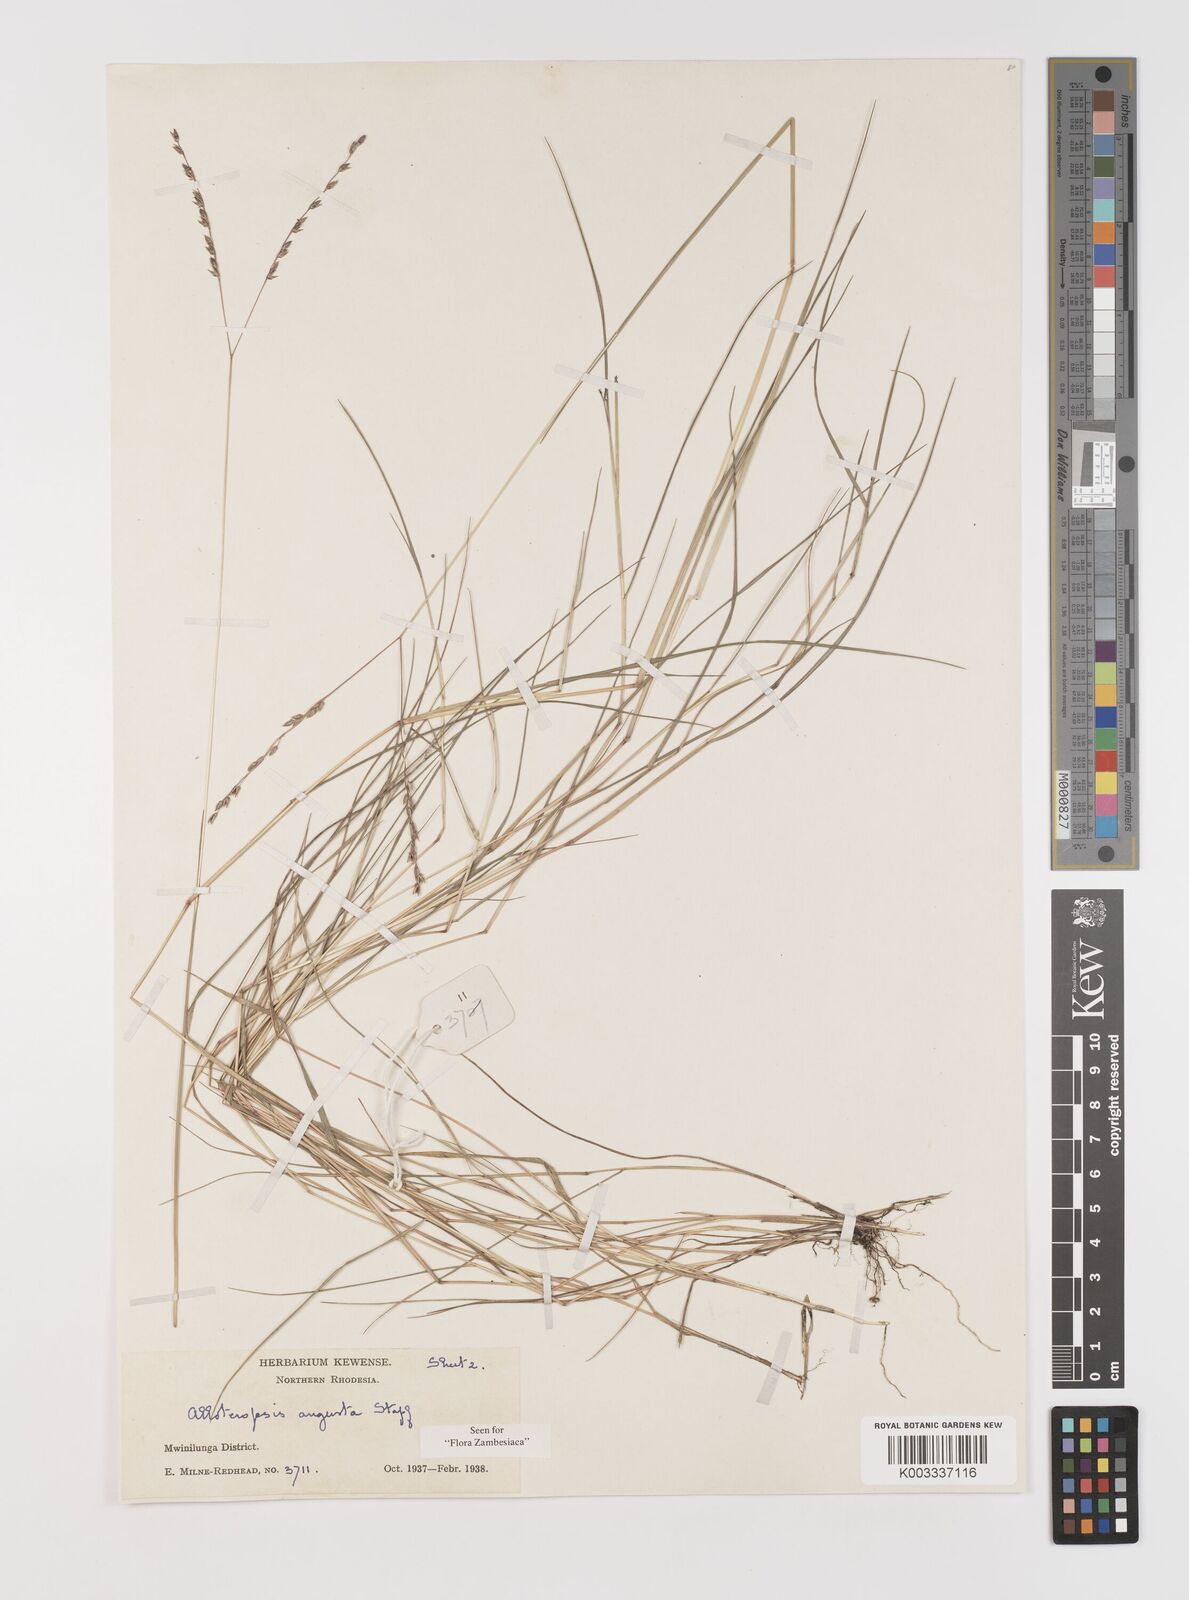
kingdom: Plantae
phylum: Tracheophyta
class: Liliopsida
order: Poales
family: Poaceae
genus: Alloteropsis
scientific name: Alloteropsis angusta
